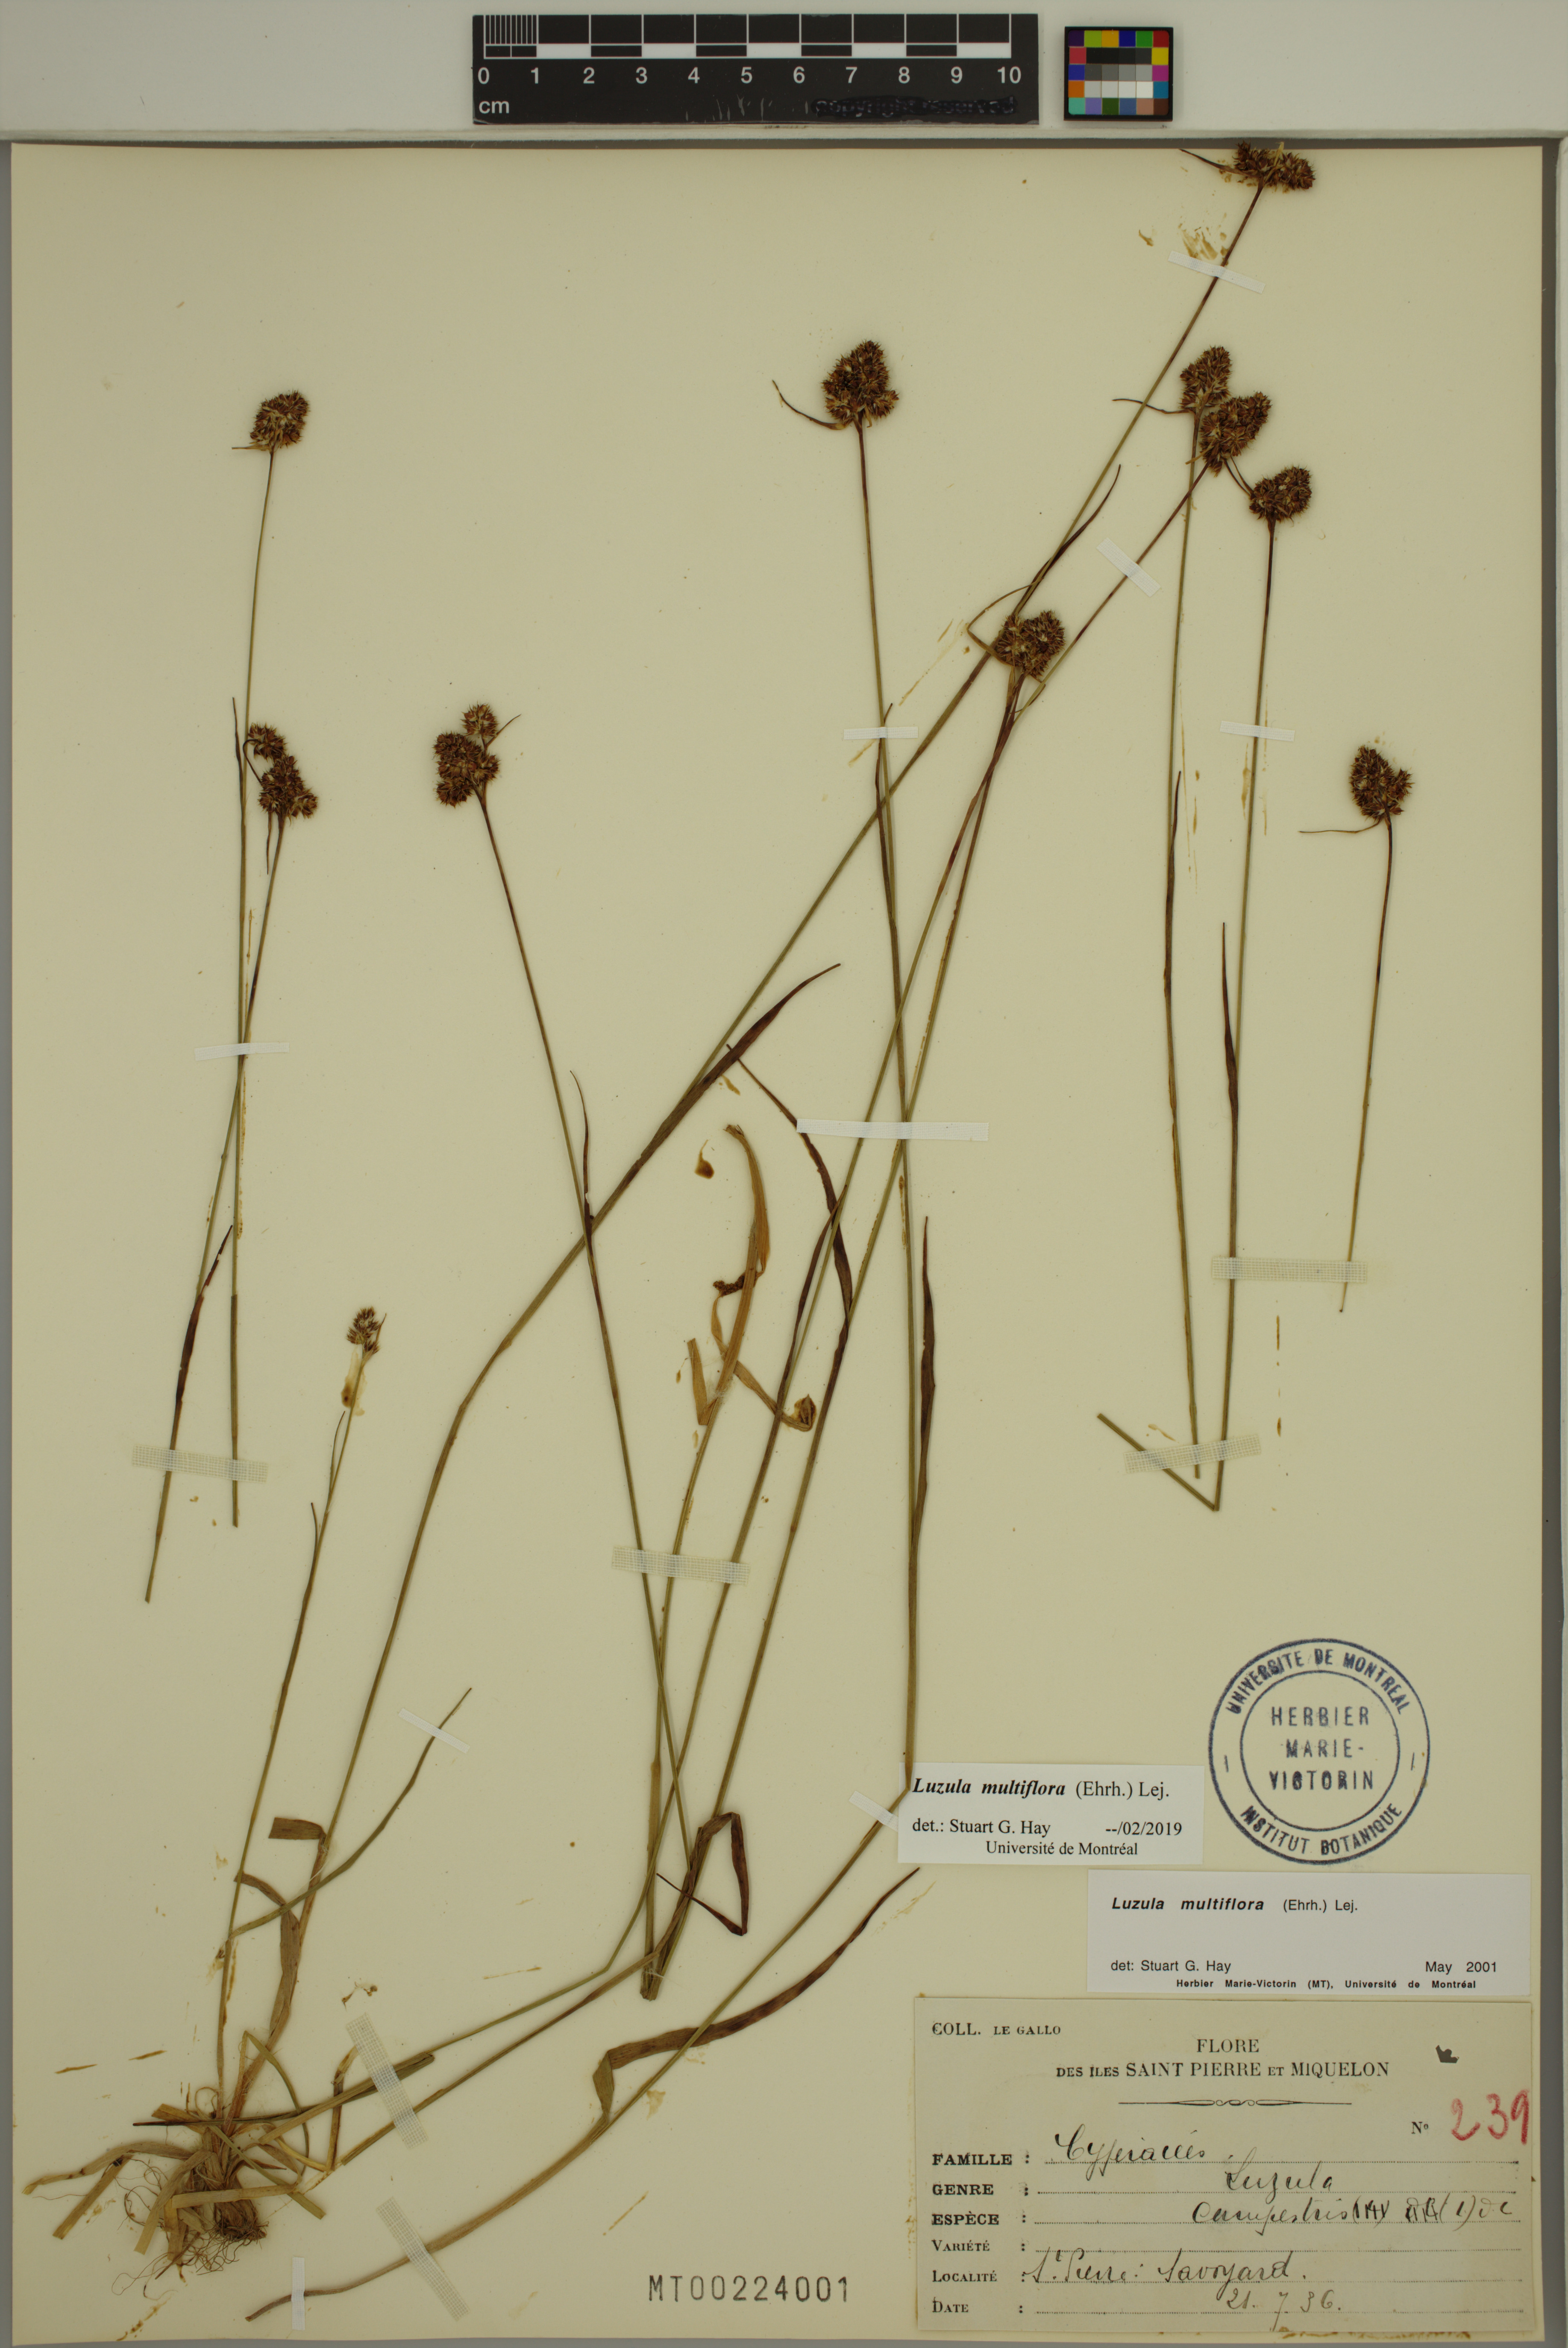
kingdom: Plantae
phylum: Tracheophyta
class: Liliopsida
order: Poales
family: Juncaceae
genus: Luzula
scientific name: Luzula multiflora
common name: Heath wood-rush
